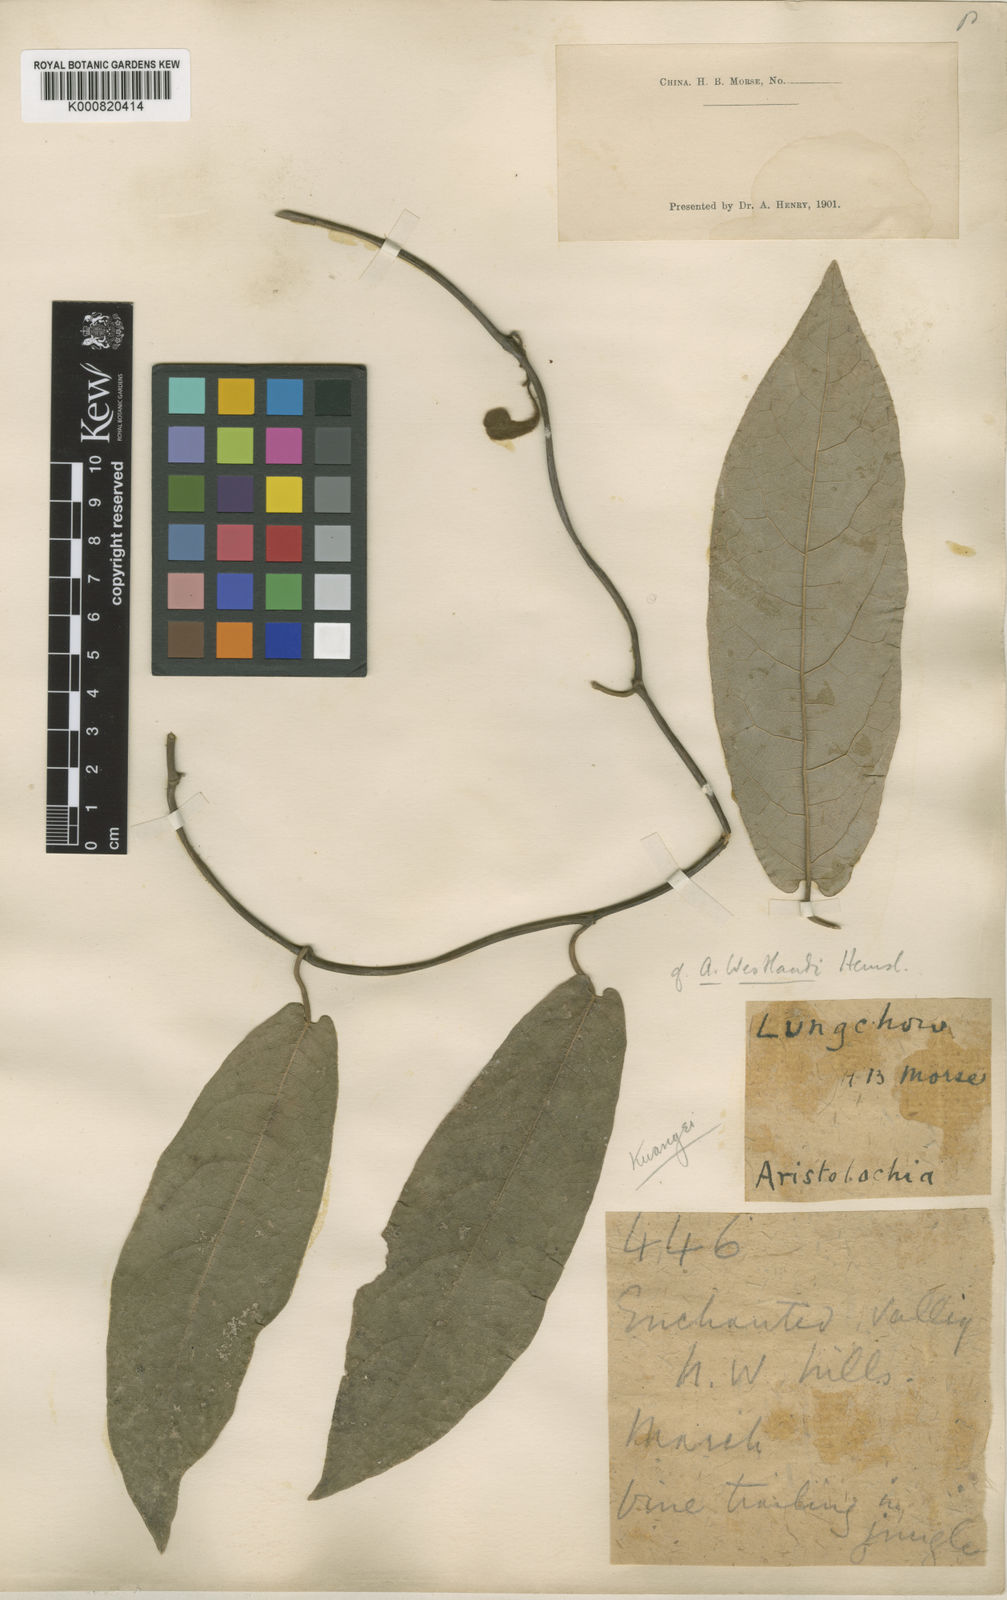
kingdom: Plantae
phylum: Tracheophyta
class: Magnoliopsida
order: Piperales
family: Aristolochiaceae
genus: Isotrema
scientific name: Isotrema westlandii
